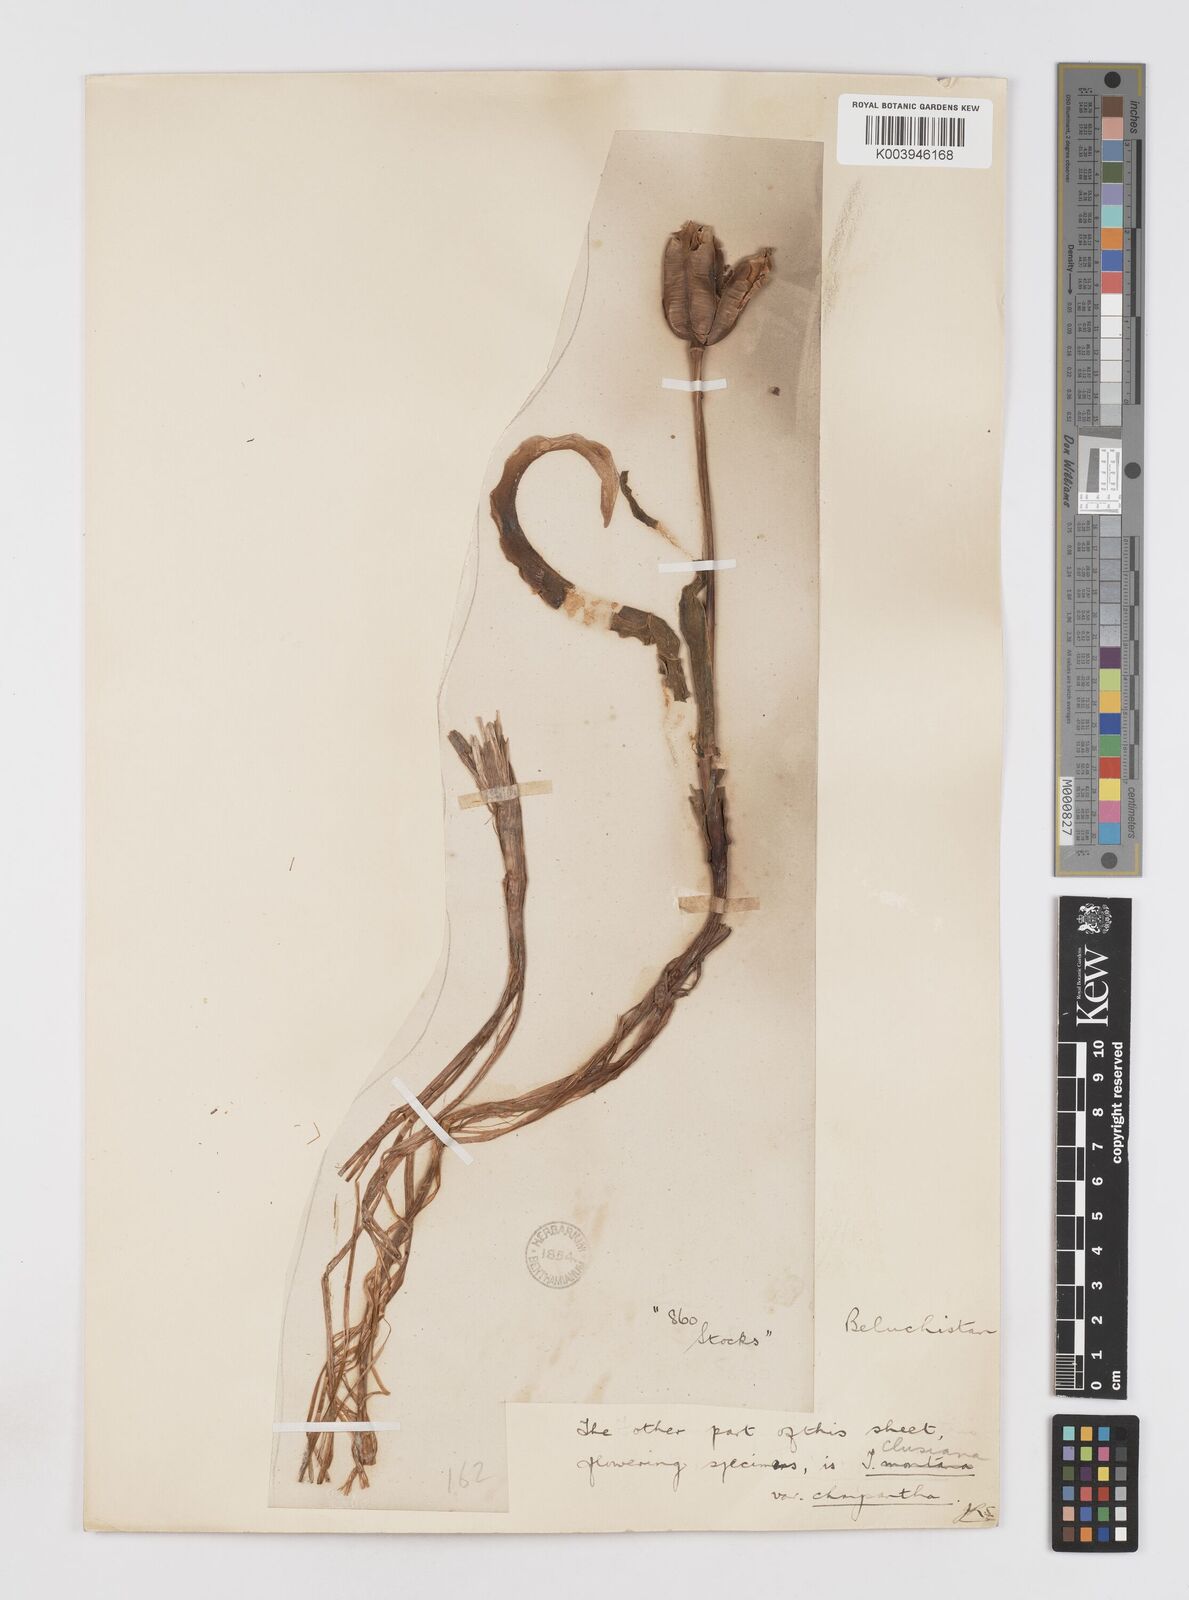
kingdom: Plantae
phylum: Tracheophyta
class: Liliopsida
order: Liliales
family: Liliaceae
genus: Tulipa
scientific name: Tulipa borszczowii
